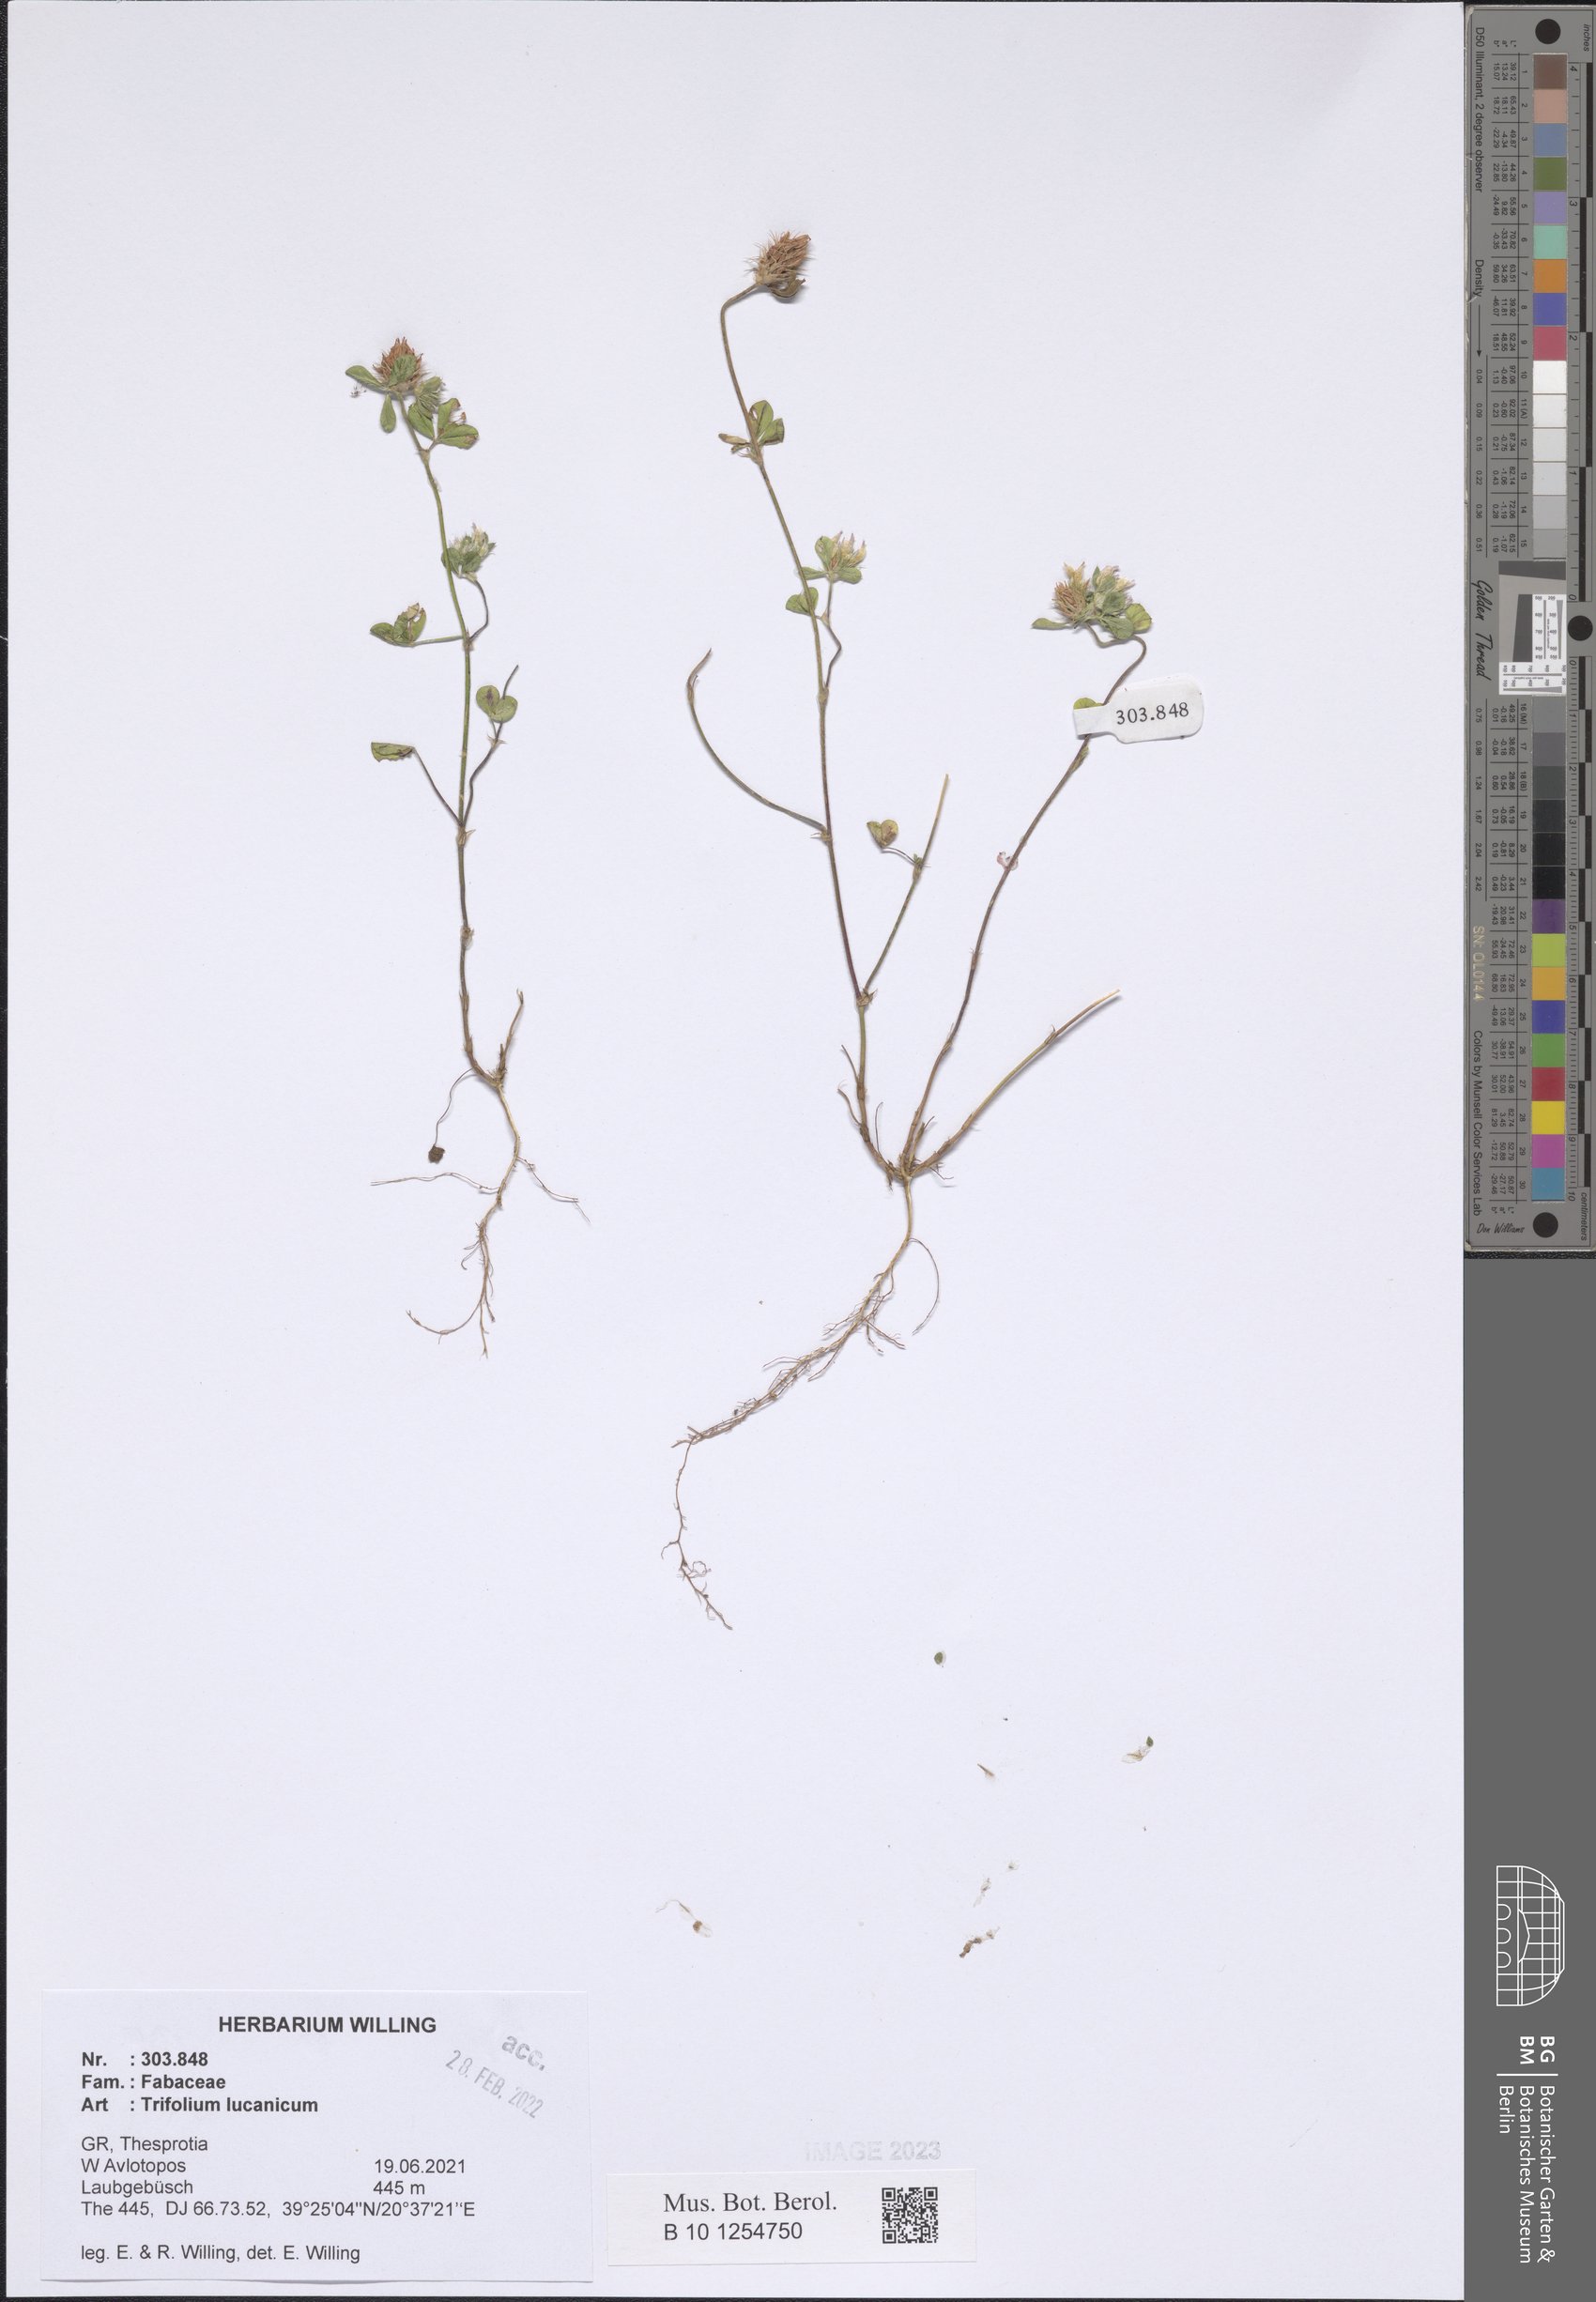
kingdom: Plantae
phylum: Tracheophyta
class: Magnoliopsida
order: Fabales
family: Fabaceae
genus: Trifolium
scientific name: Trifolium lucanicum
